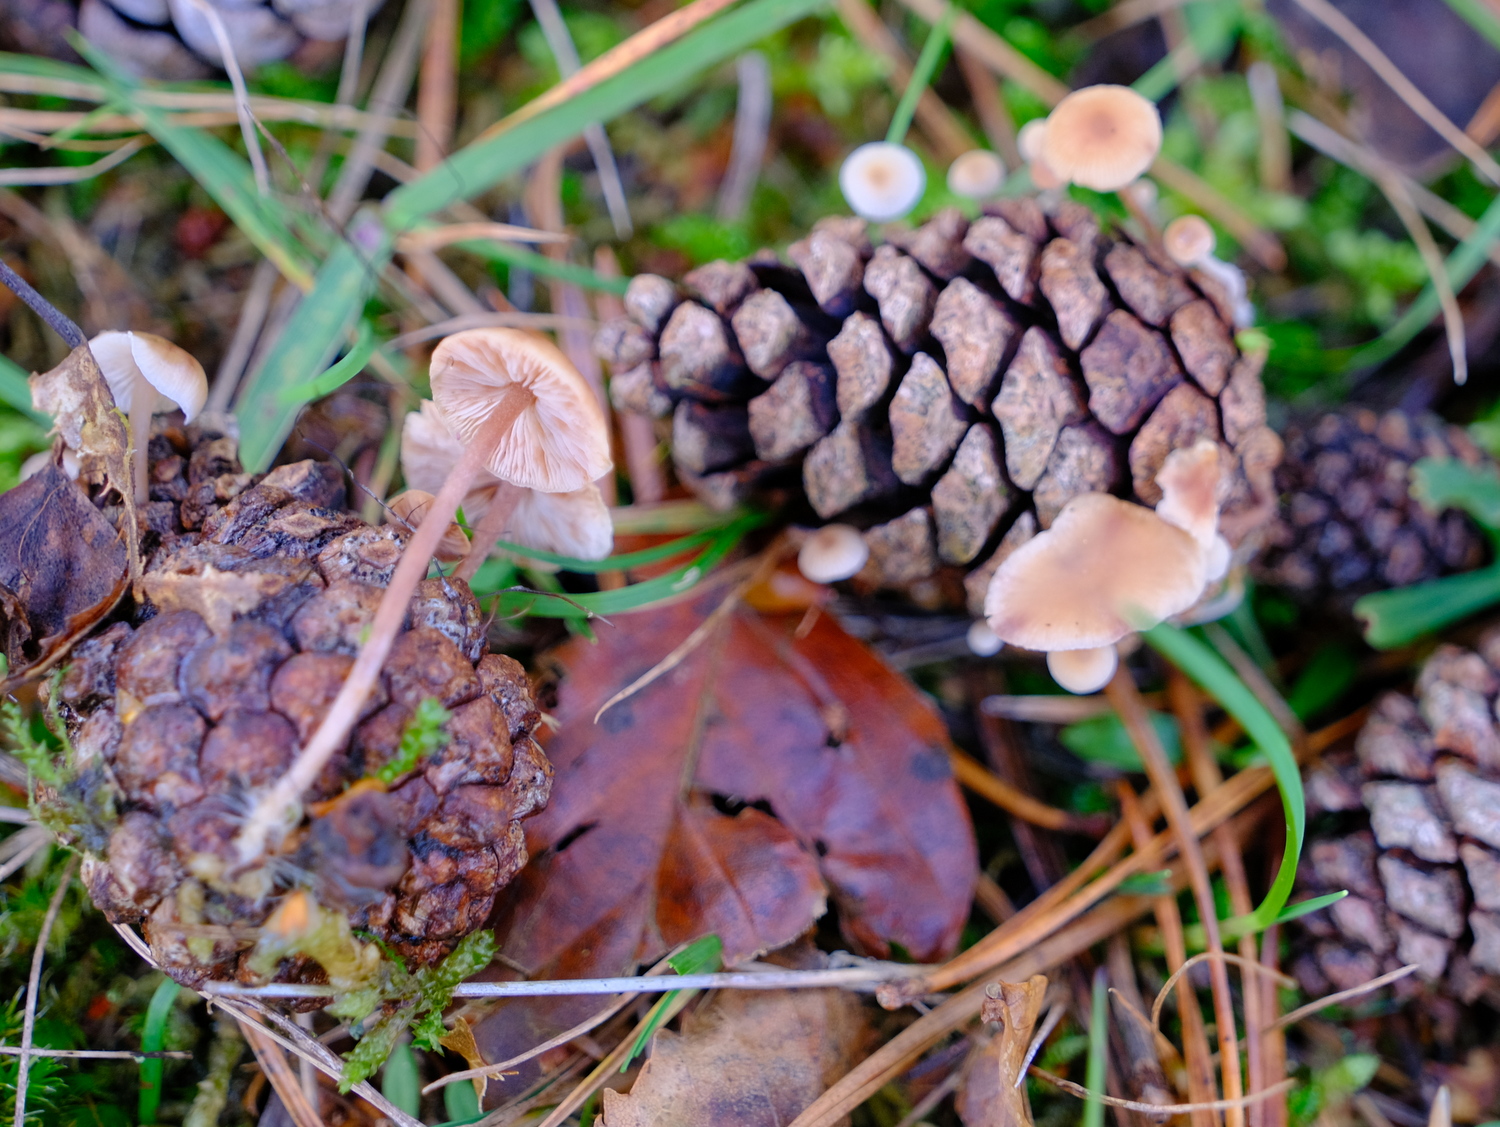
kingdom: Fungi
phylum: Basidiomycota
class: Agaricomycetes
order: Agaricales
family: Marasmiaceae
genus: Baeospora
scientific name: Baeospora myosura
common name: koglebruskhat
